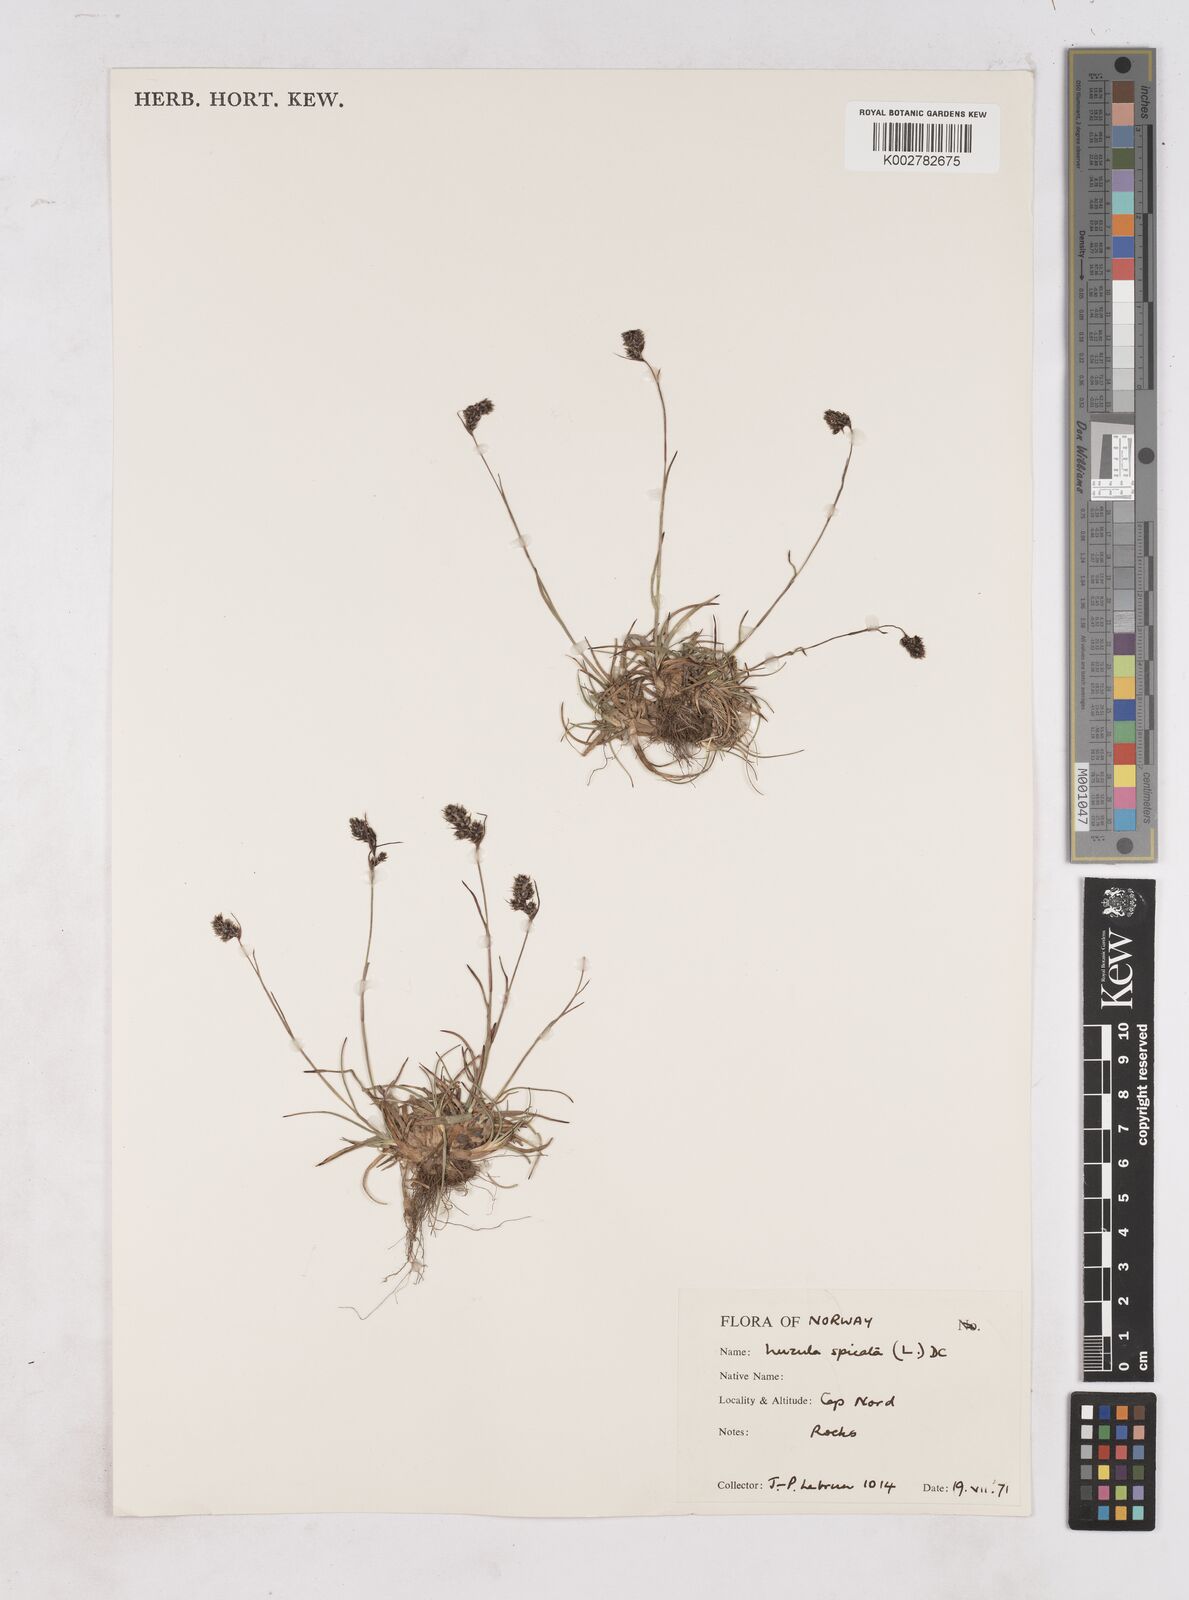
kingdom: Plantae
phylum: Tracheophyta
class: Liliopsida
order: Poales
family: Juncaceae
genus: Luzula
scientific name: Luzula spicata
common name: Spiked wood-rush
